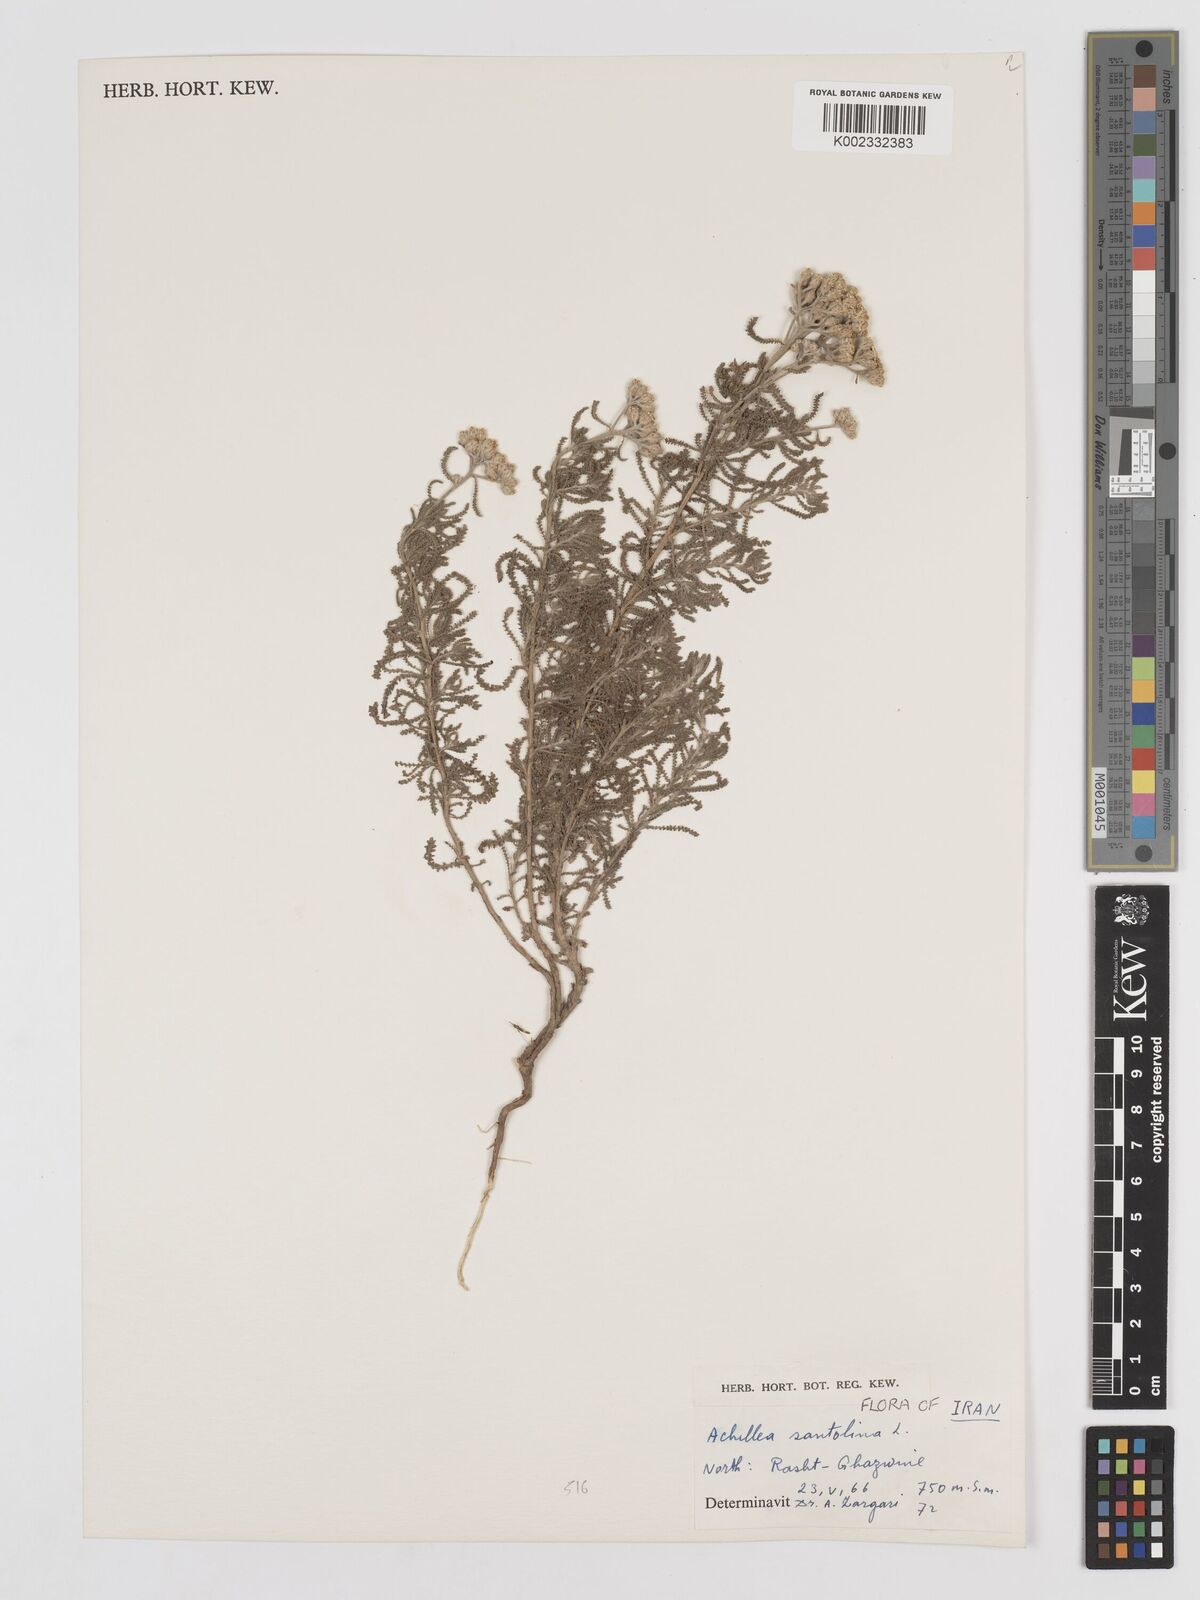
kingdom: Plantae
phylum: Tracheophyta
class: Magnoliopsida
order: Asterales
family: Asteraceae
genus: Achillea
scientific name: Achillea cretica
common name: Chamomile-leaved lavender-cotton
